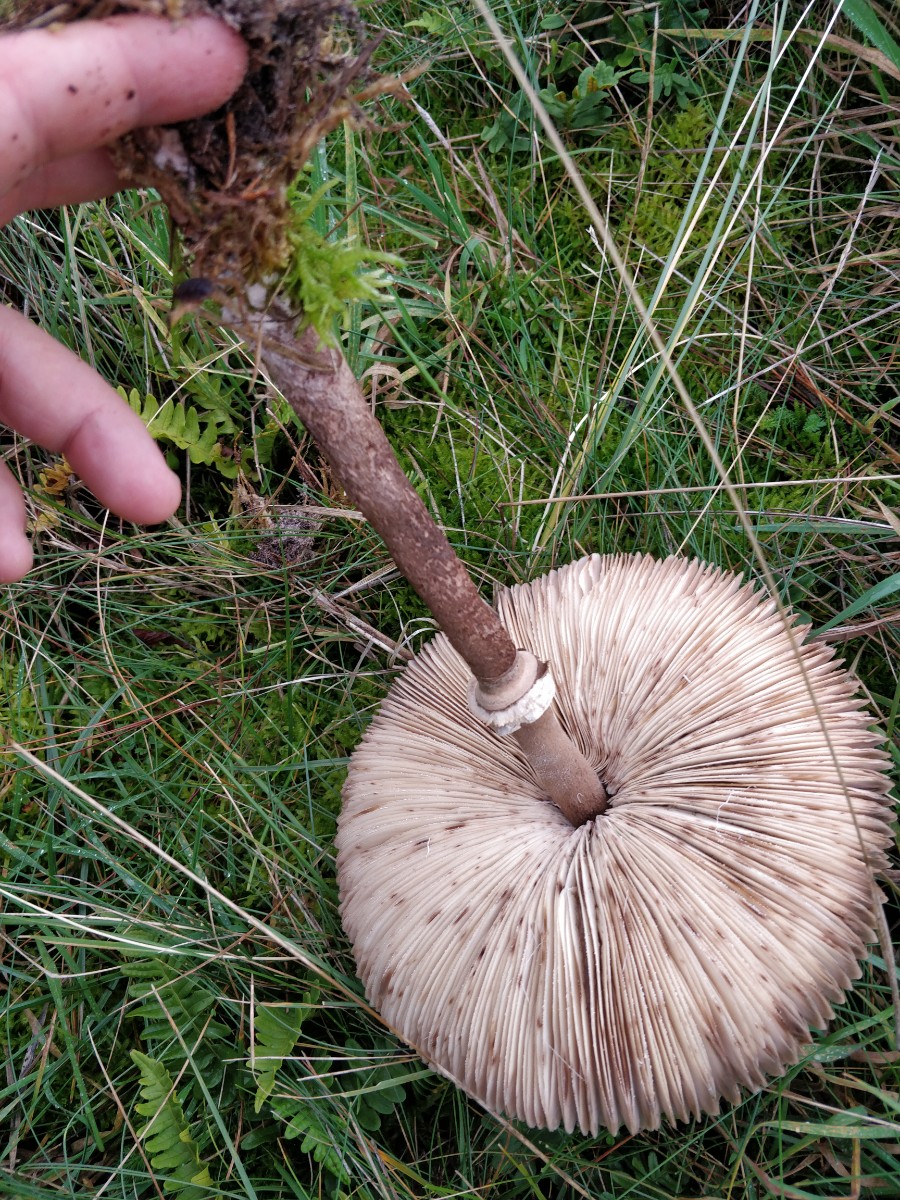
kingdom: Fungi
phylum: Basidiomycota
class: Agaricomycetes
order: Agaricales
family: Agaricaceae
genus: Macrolepiota
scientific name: Macrolepiota procera
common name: stor kæmpeparasolhat
